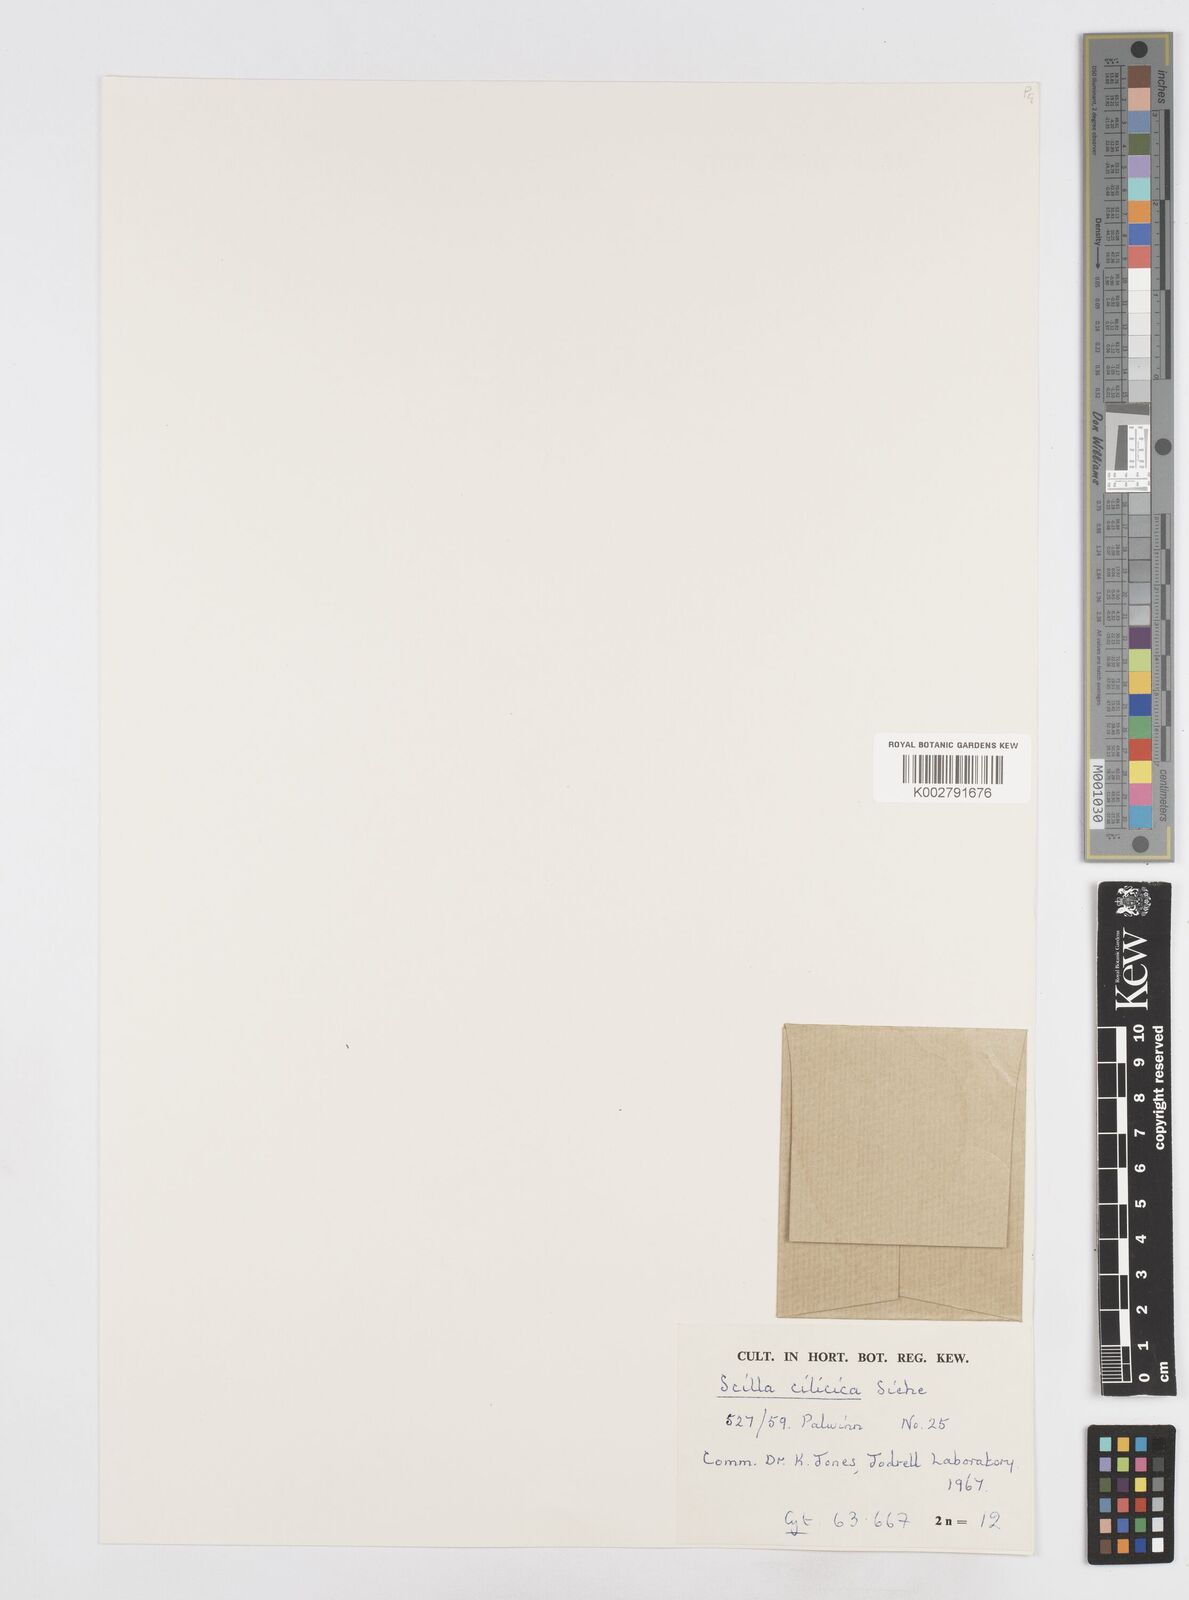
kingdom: Plantae
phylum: Tracheophyta
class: Liliopsida
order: Asparagales
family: Asparagaceae
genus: Scilla
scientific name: Scilla cilicica
